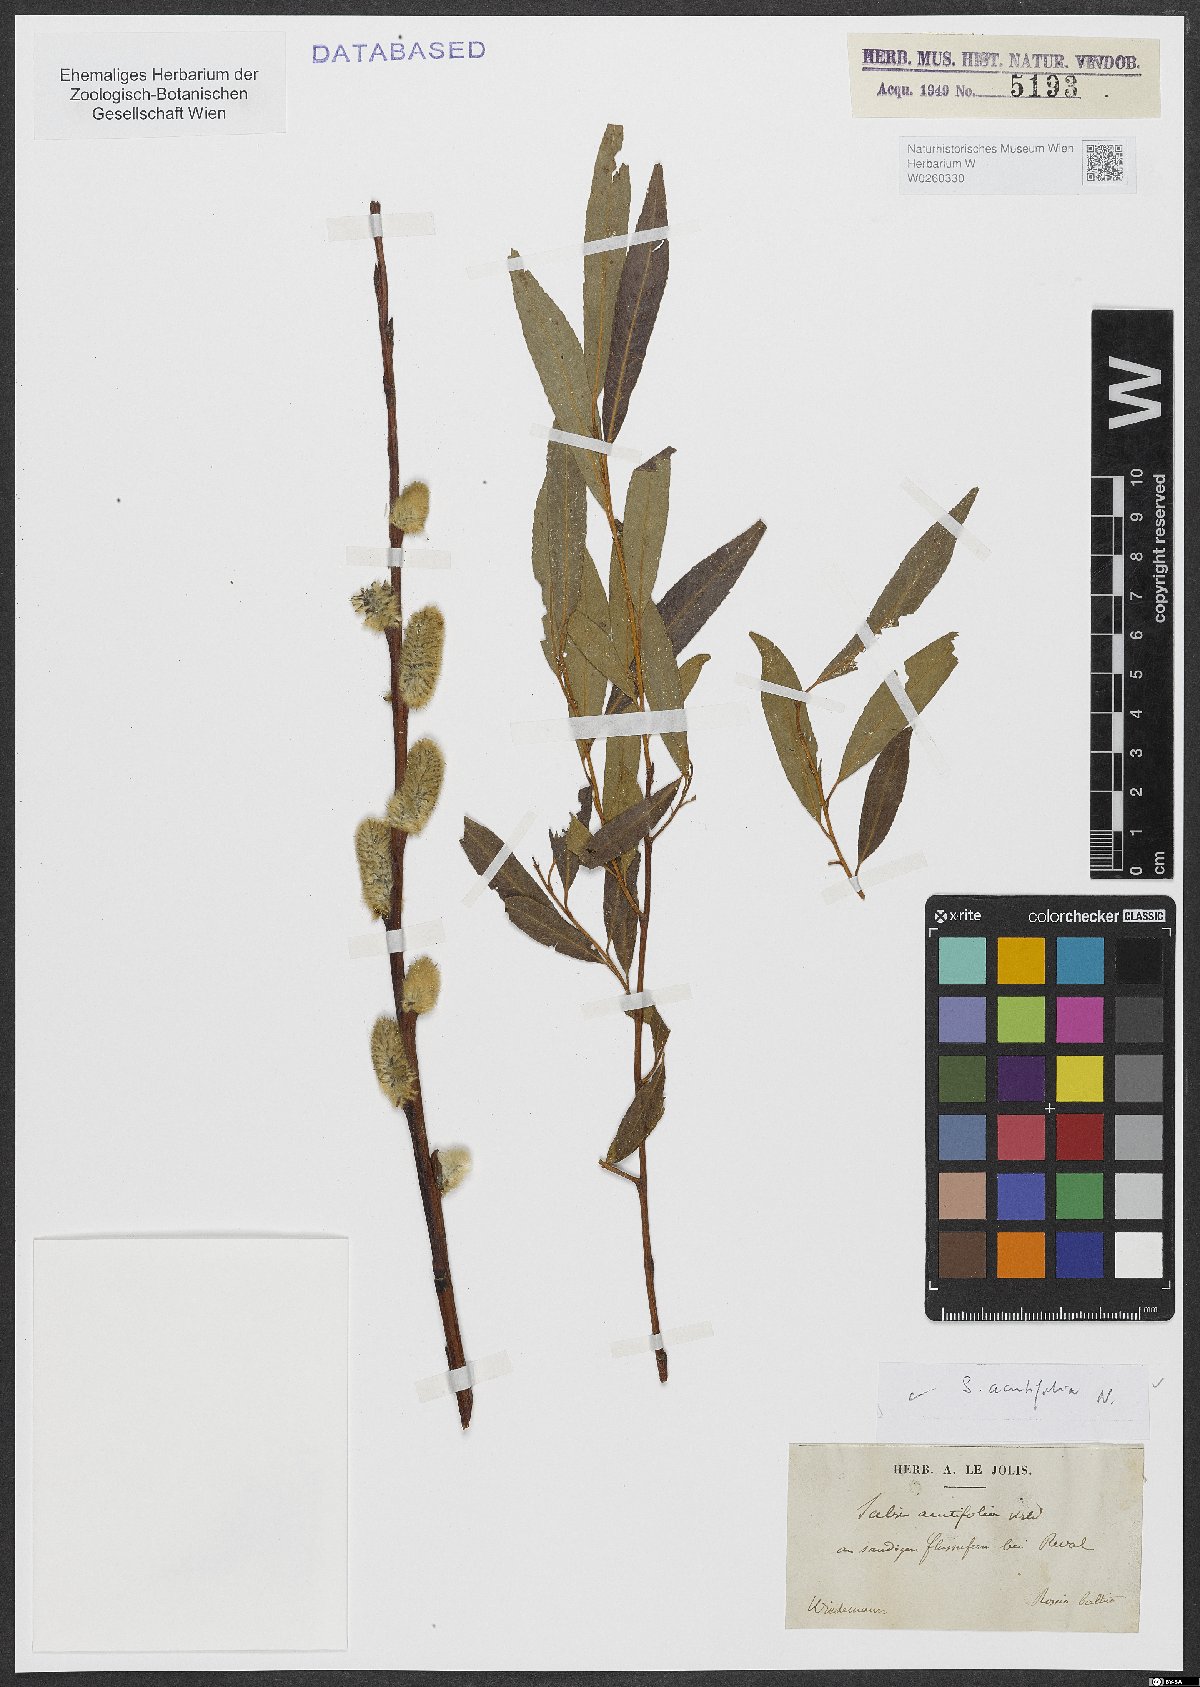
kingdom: Plantae
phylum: Tracheophyta
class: Magnoliopsida
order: Malpighiales
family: Salicaceae
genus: Salix
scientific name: Salix acutifolia
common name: Siberian violet-willow
